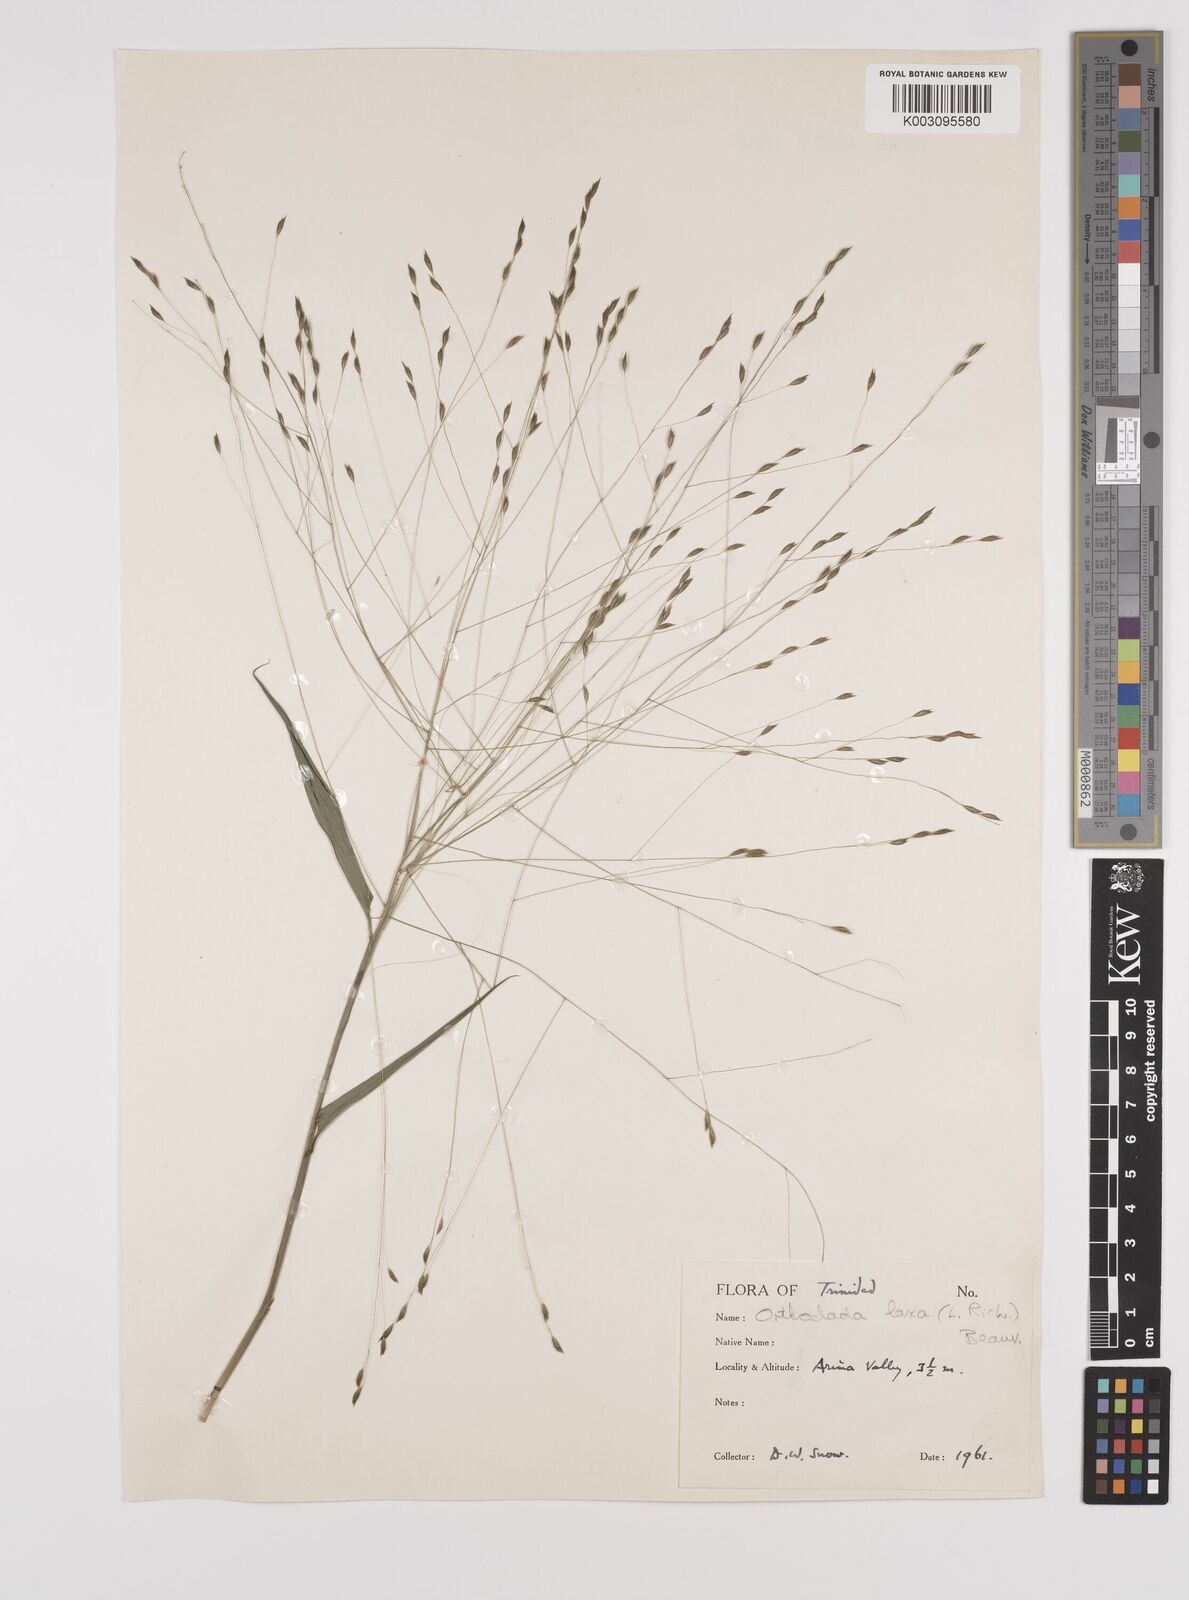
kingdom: Plantae
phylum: Tracheophyta
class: Liliopsida
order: Poales
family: Poaceae
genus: Orthoclada
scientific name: Orthoclada laxa
